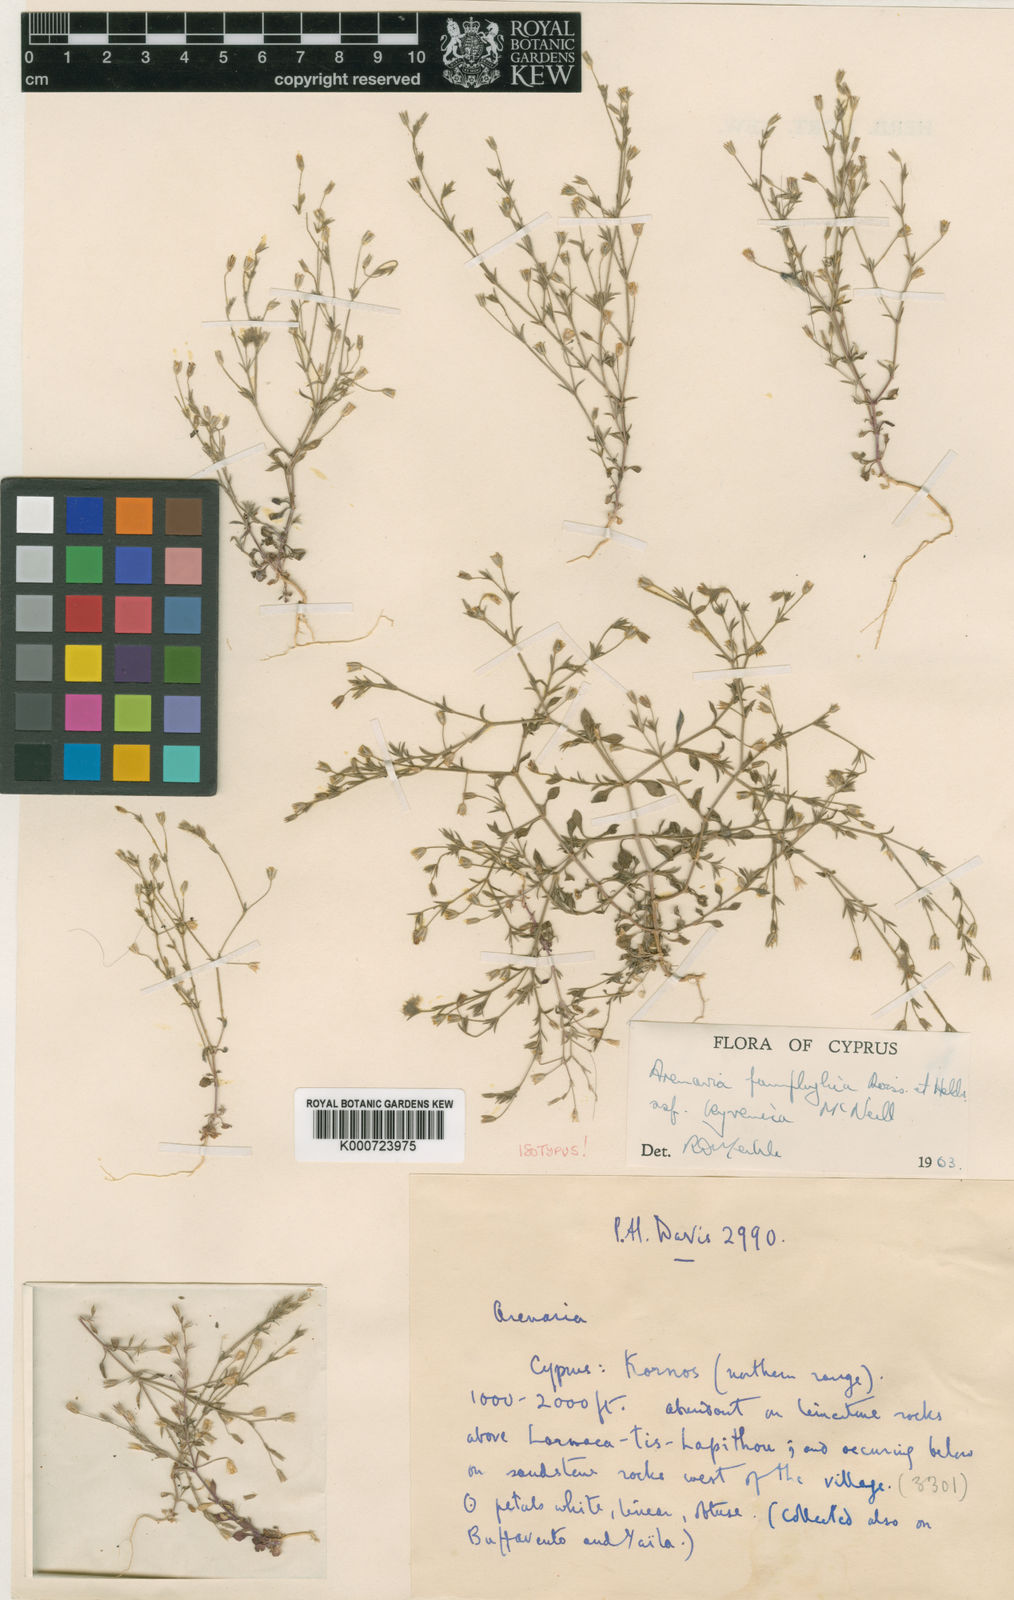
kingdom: Plantae
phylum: Tracheophyta
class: Magnoliopsida
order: Caryophyllales
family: Caryophyllaceae
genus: Arenaria
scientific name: Arenaria pamphylica
